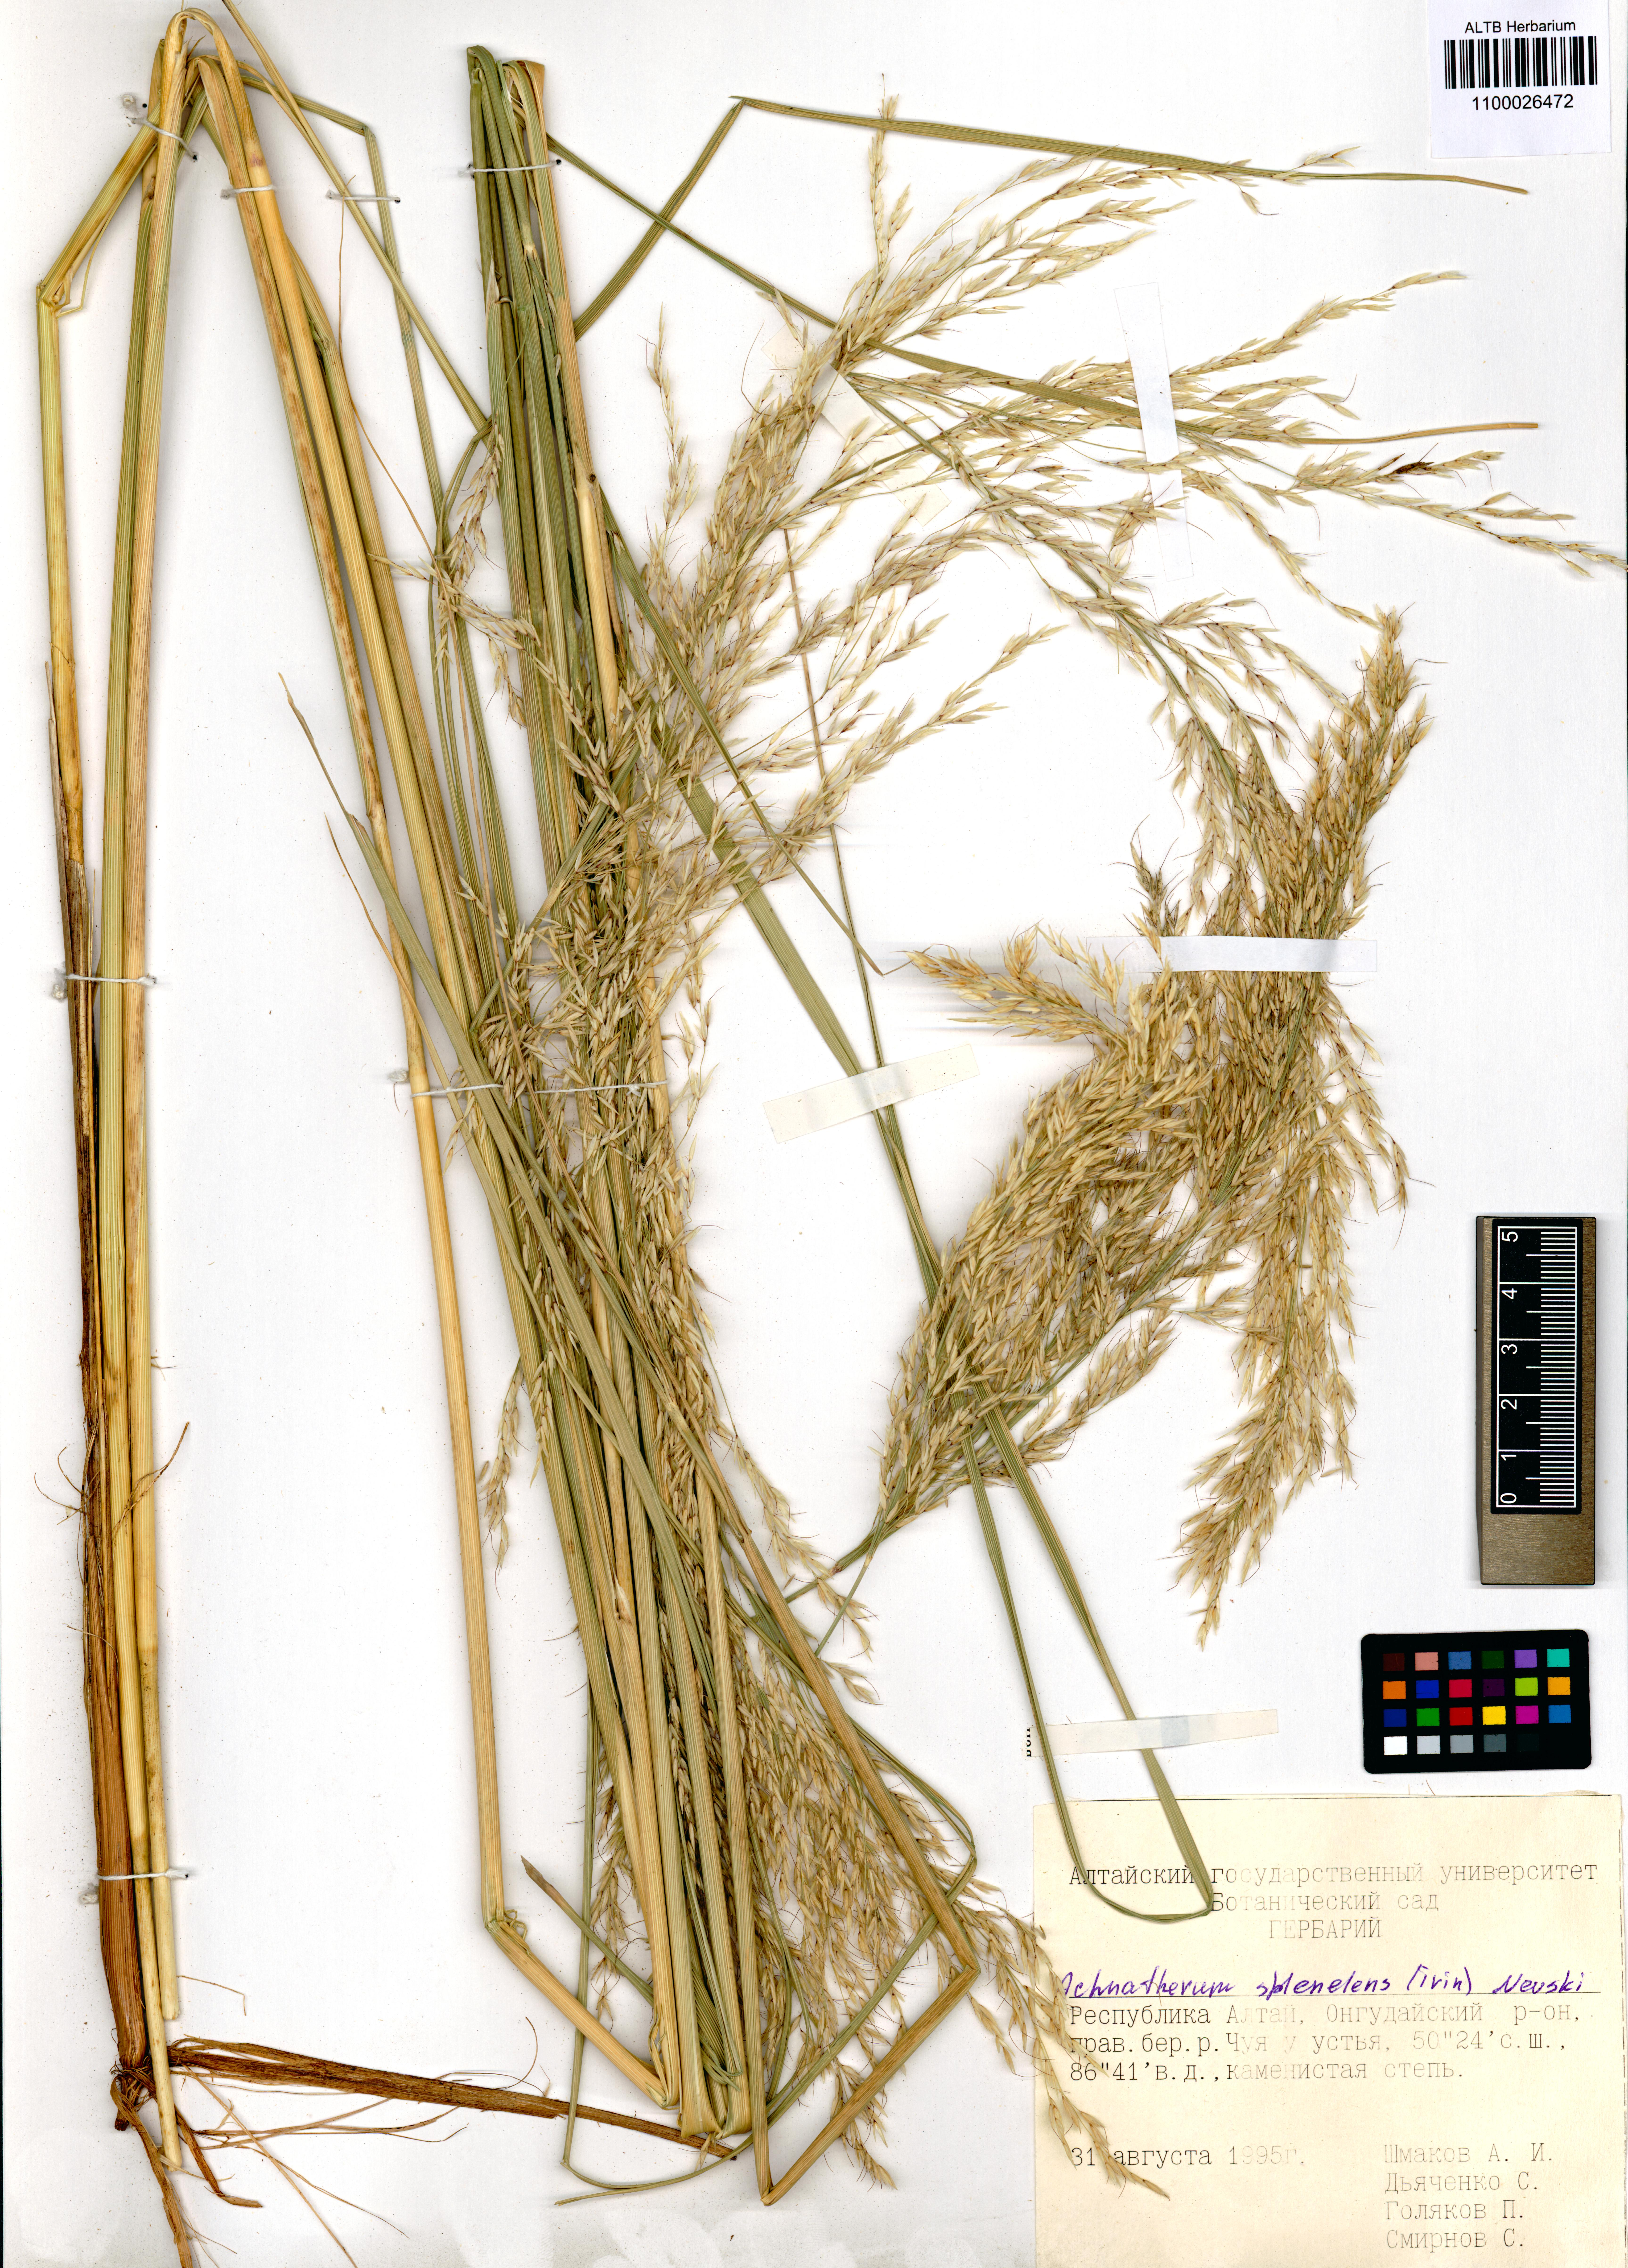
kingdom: Plantae
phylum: Tracheophyta
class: Liliopsida
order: Poales
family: Poaceae
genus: Neotrinia
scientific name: Neotrinia splendens
